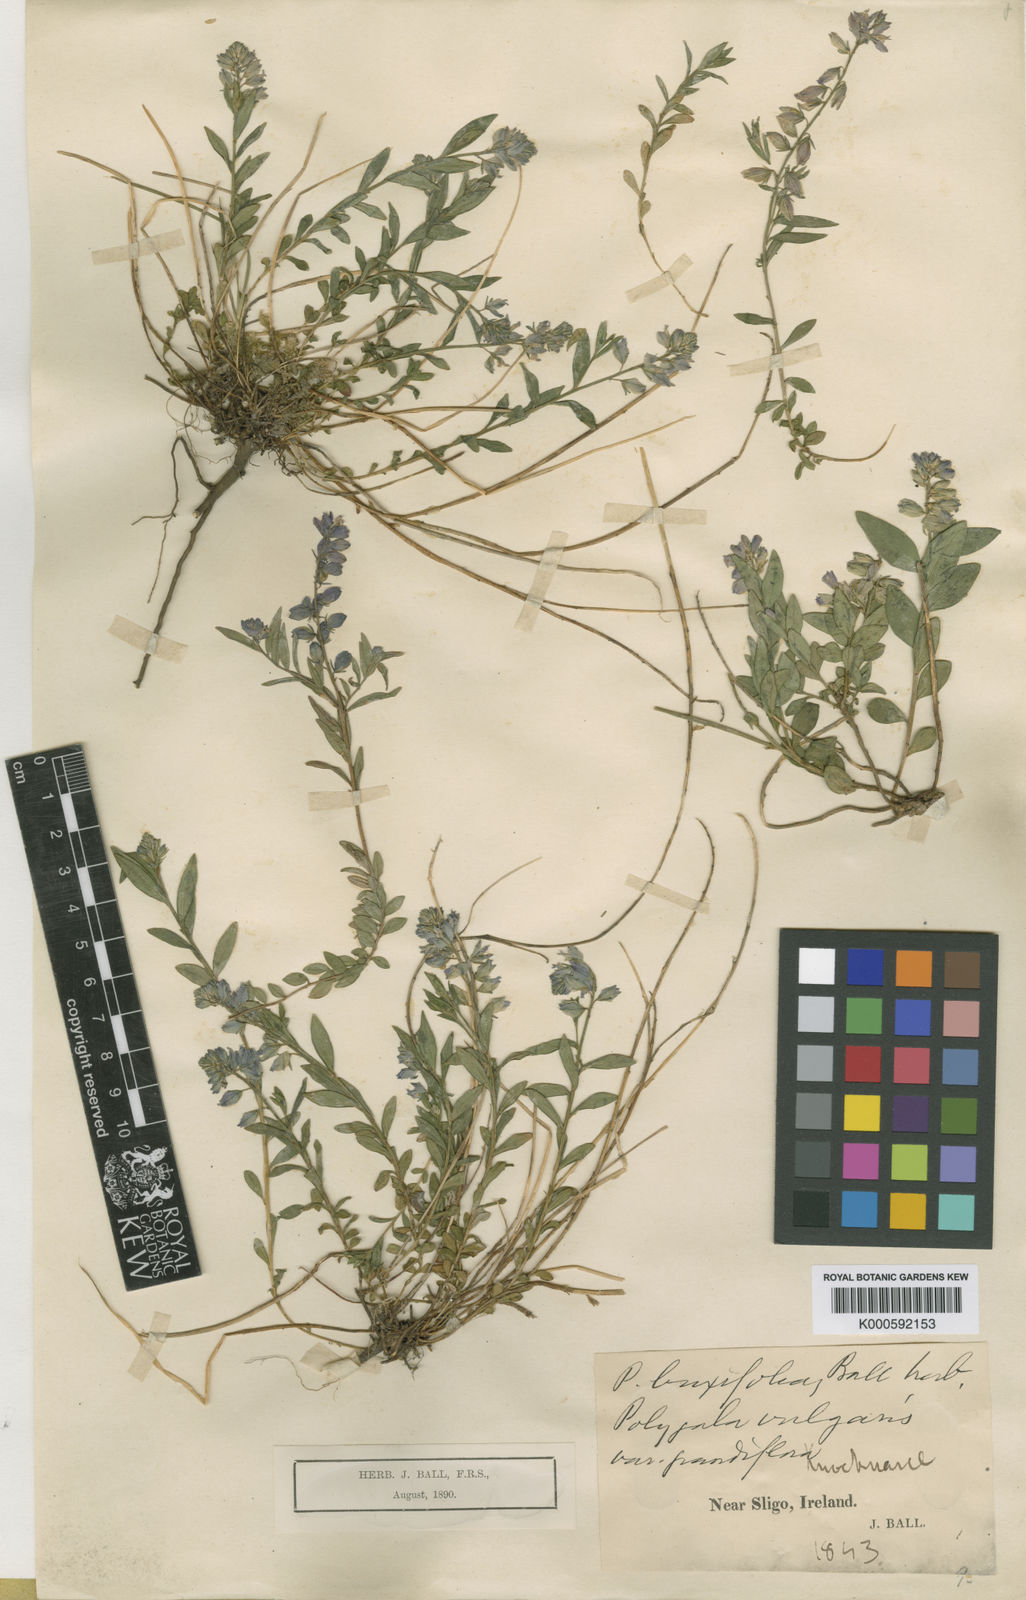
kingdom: Plantae
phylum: Tracheophyta
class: Magnoliopsida
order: Fabales
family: Polygalaceae
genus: Polygala
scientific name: Polygala vulgaris
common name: Common milkwort
